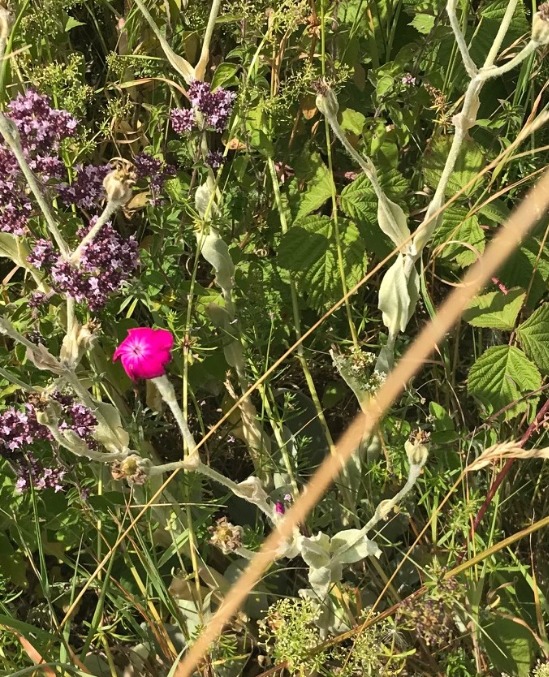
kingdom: Plantae
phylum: Tracheophyta
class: Magnoliopsida
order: Caryophyllales
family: Caryophyllaceae
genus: Silene
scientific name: Silene coronaria
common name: Fiksernellike
